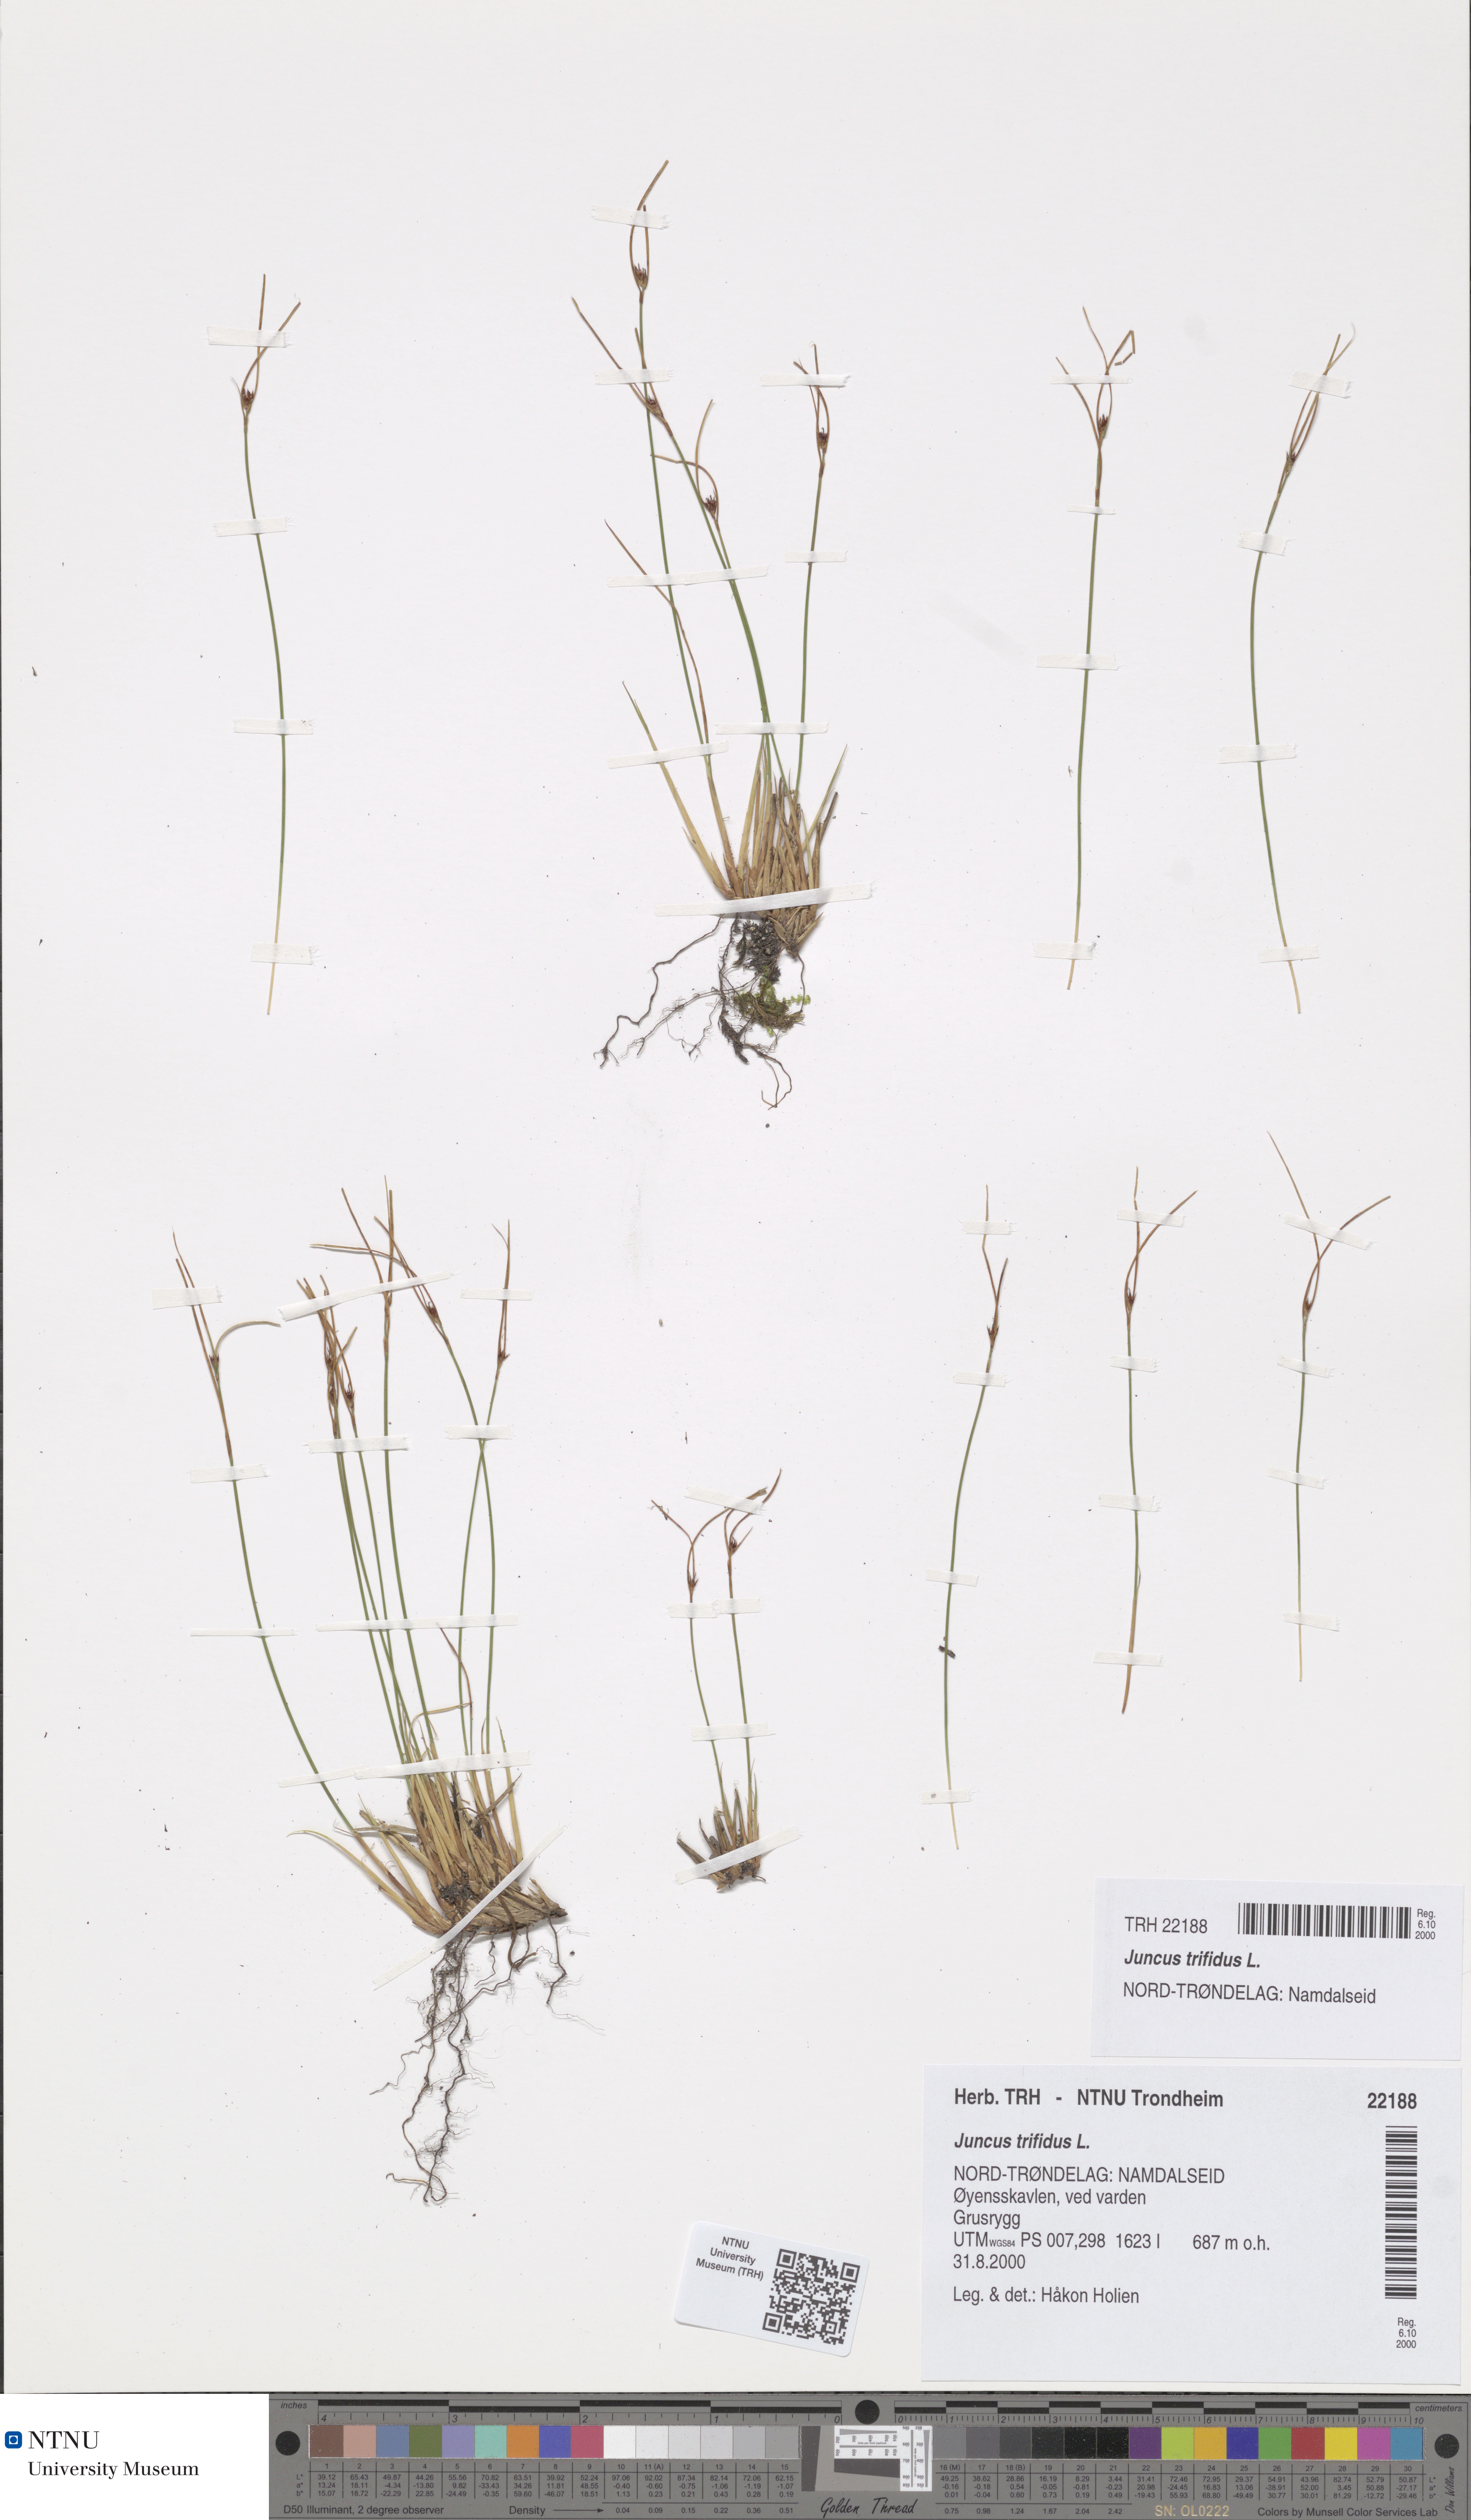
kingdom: Plantae
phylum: Tracheophyta
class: Liliopsida
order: Poales
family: Juncaceae
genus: Oreojuncus
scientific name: Oreojuncus trifidus
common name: Highland rush
